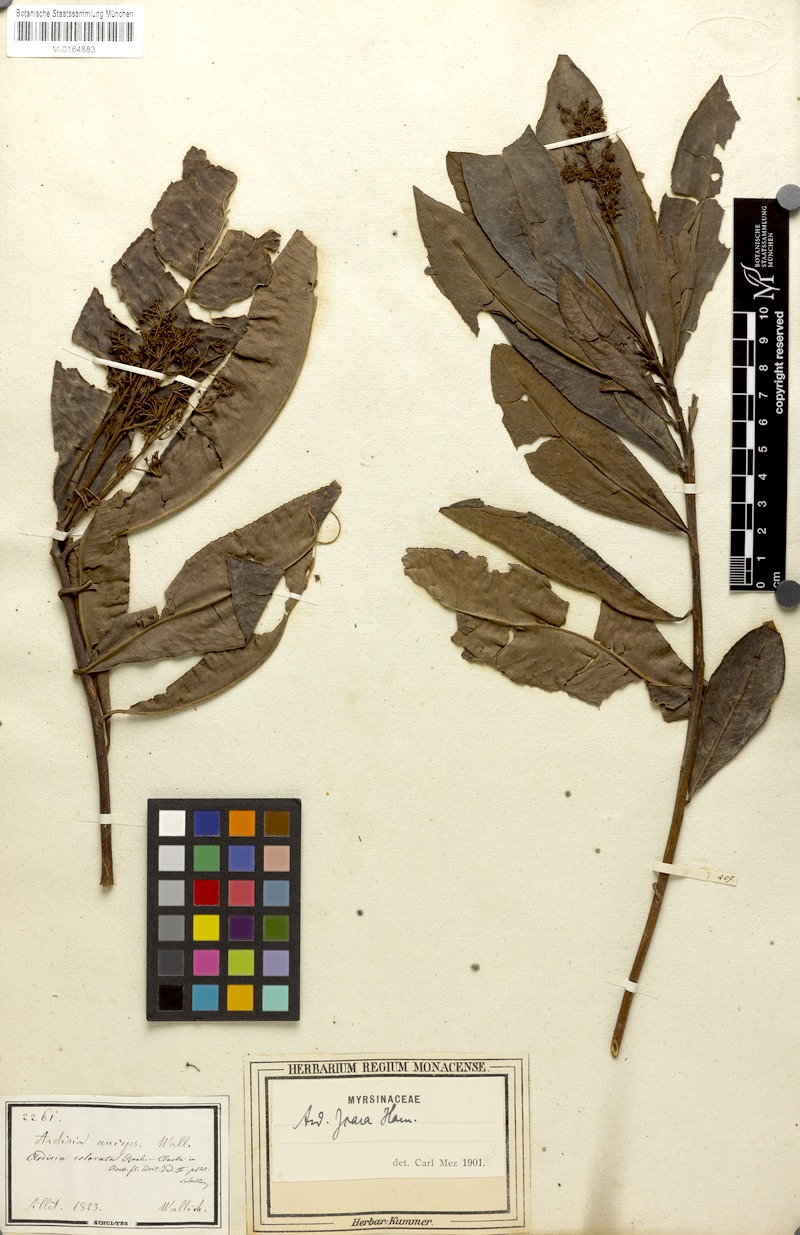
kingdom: Plantae
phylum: Tracheophyta
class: Magnoliopsida
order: Ericales
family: Primulaceae
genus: Ardisia
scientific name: Ardisia complanata
